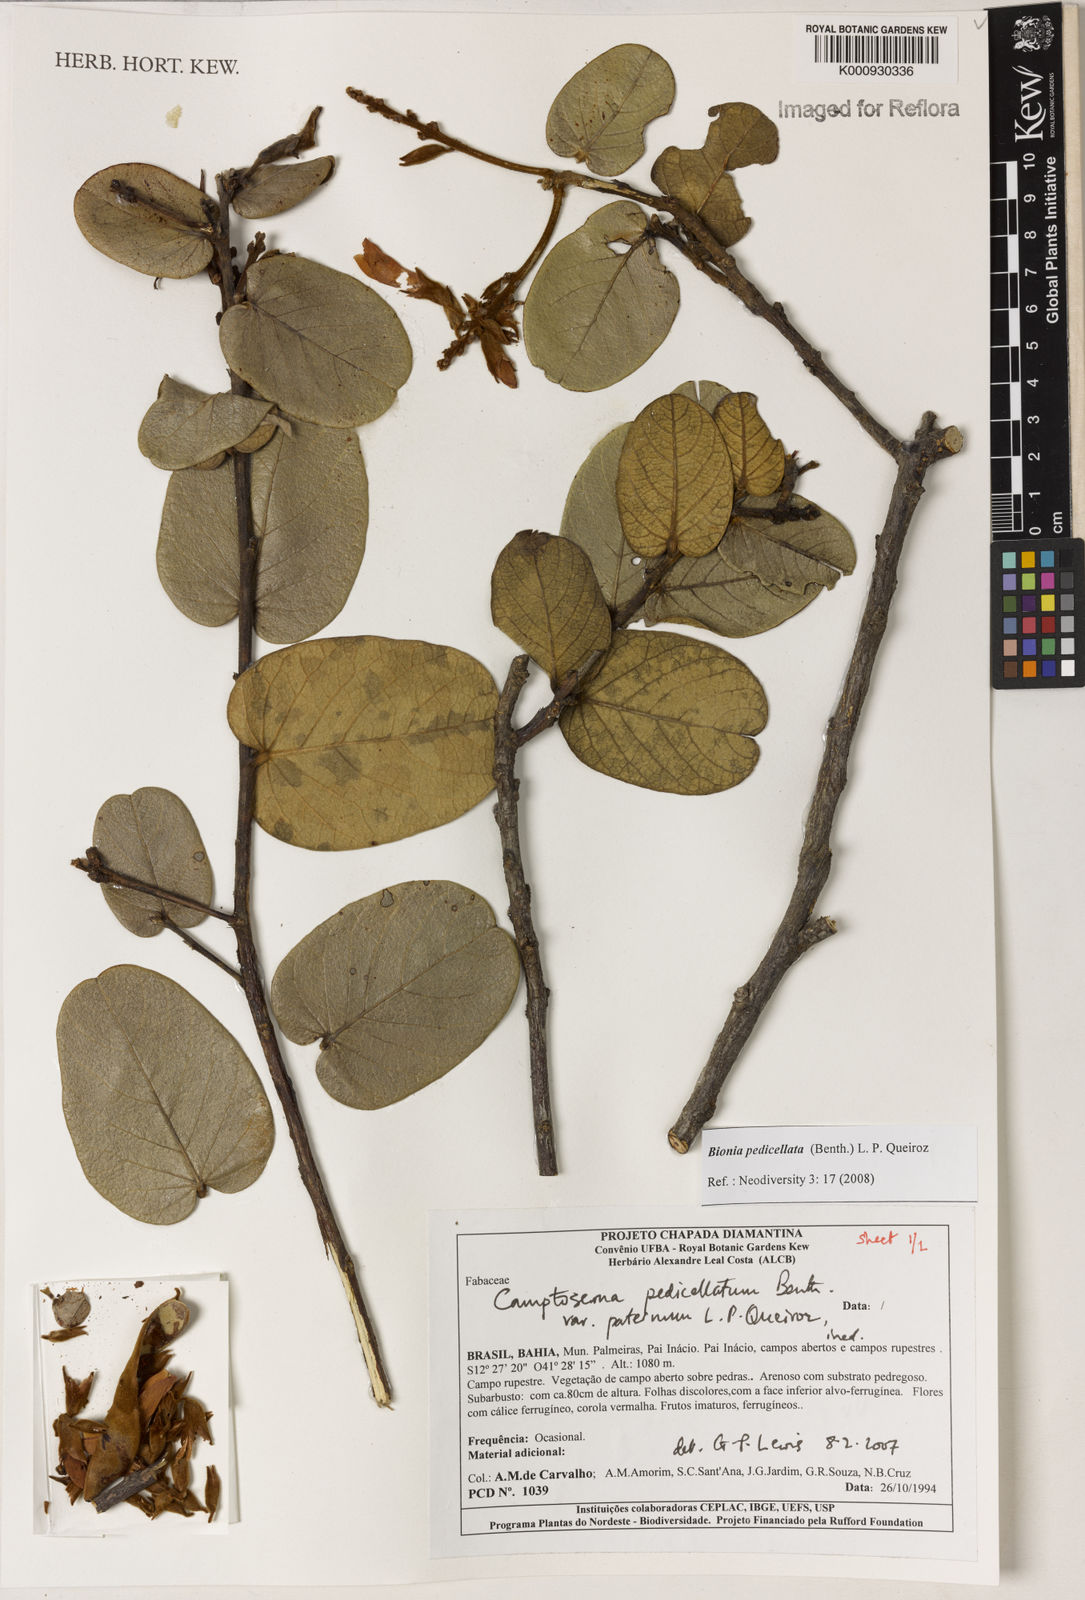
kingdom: Plantae
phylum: Tracheophyta
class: Magnoliopsida
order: Fabales
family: Fabaceae
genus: Camptosema
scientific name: Camptosema pedicellatum
